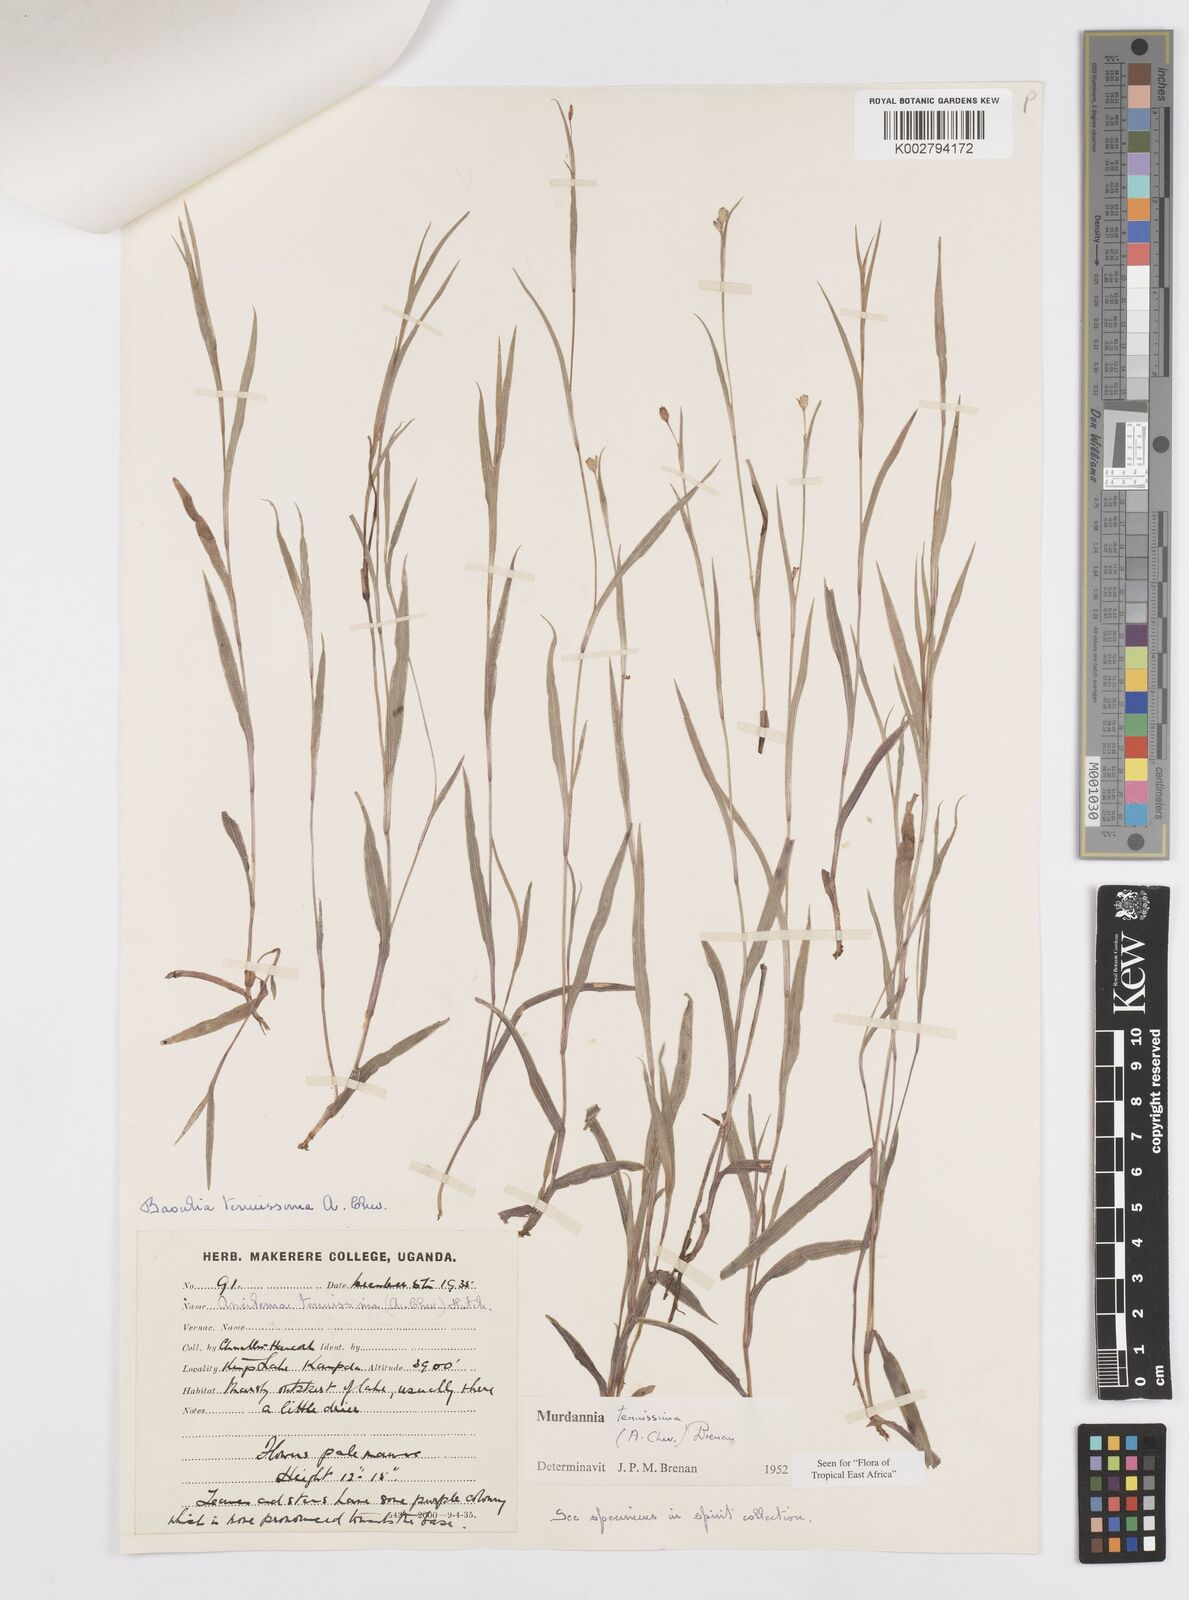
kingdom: Plantae
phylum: Tracheophyta
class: Liliopsida
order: Commelinales
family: Commelinaceae
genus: Murdannia
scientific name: Murdannia tenuissima
